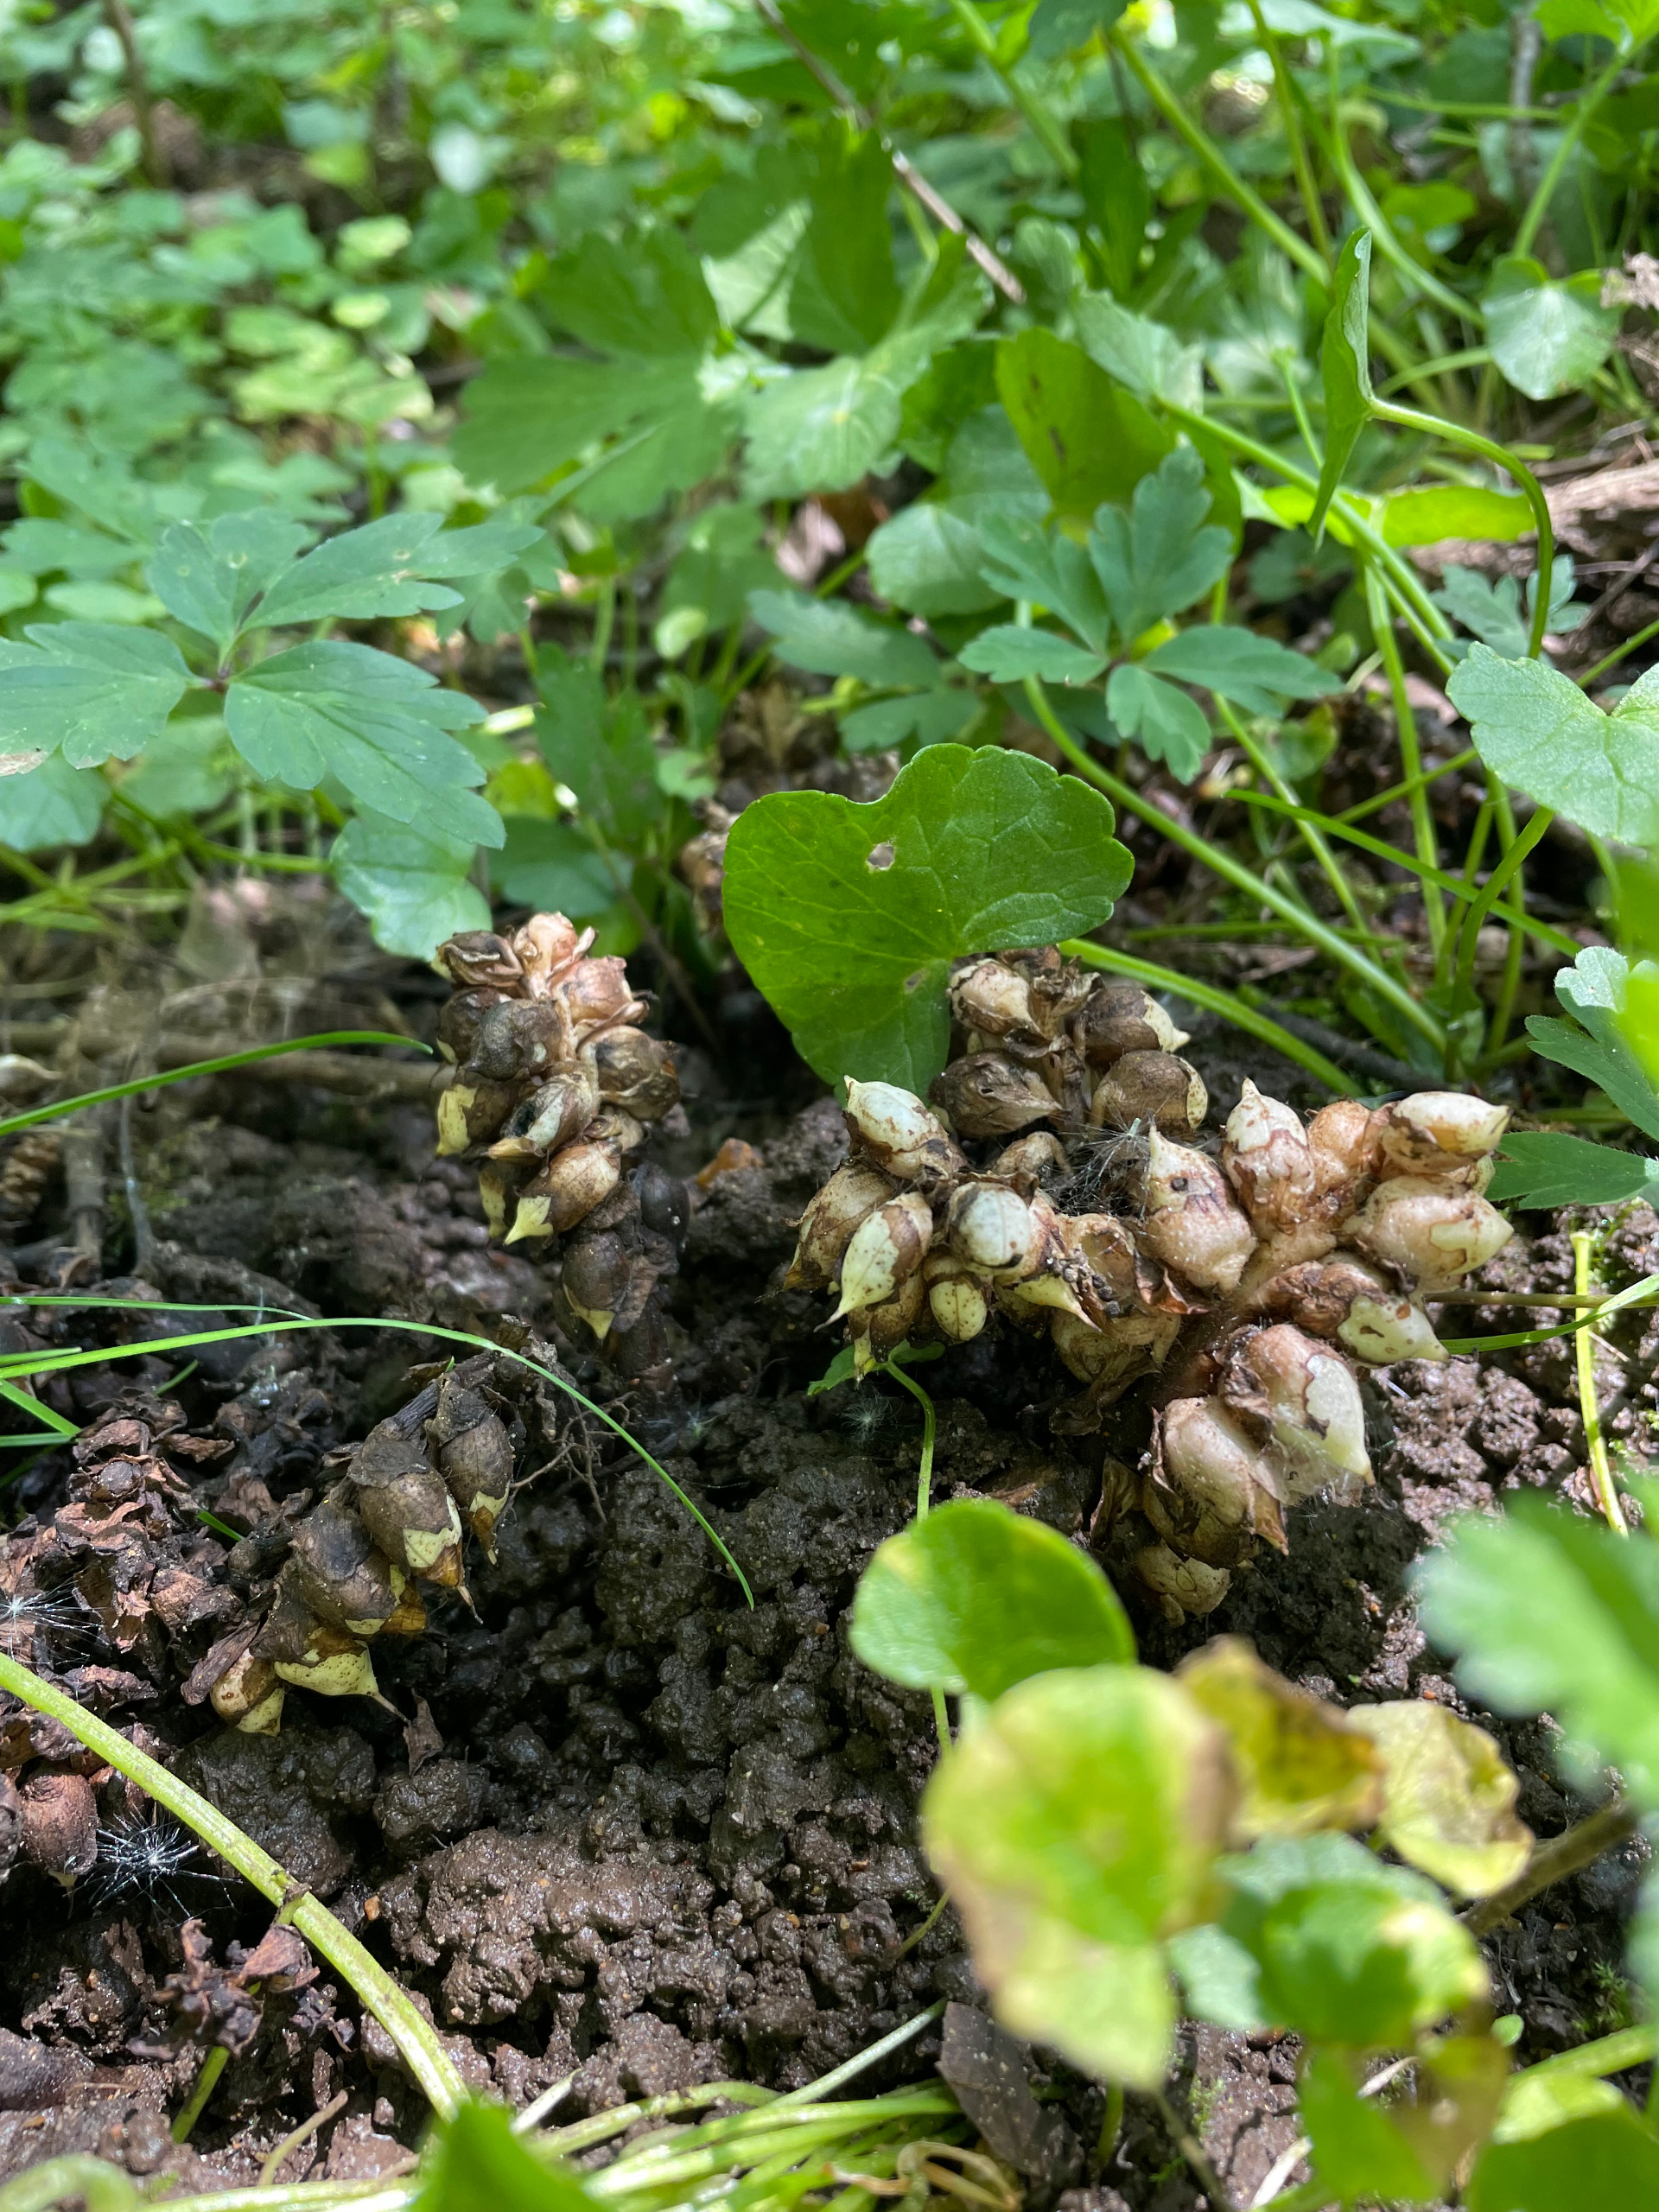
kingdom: Plantae
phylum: Tracheophyta
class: Magnoliopsida
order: Lamiales
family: Orobanchaceae
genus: Lathraea
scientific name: Lathraea squamaria
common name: Skælrod
